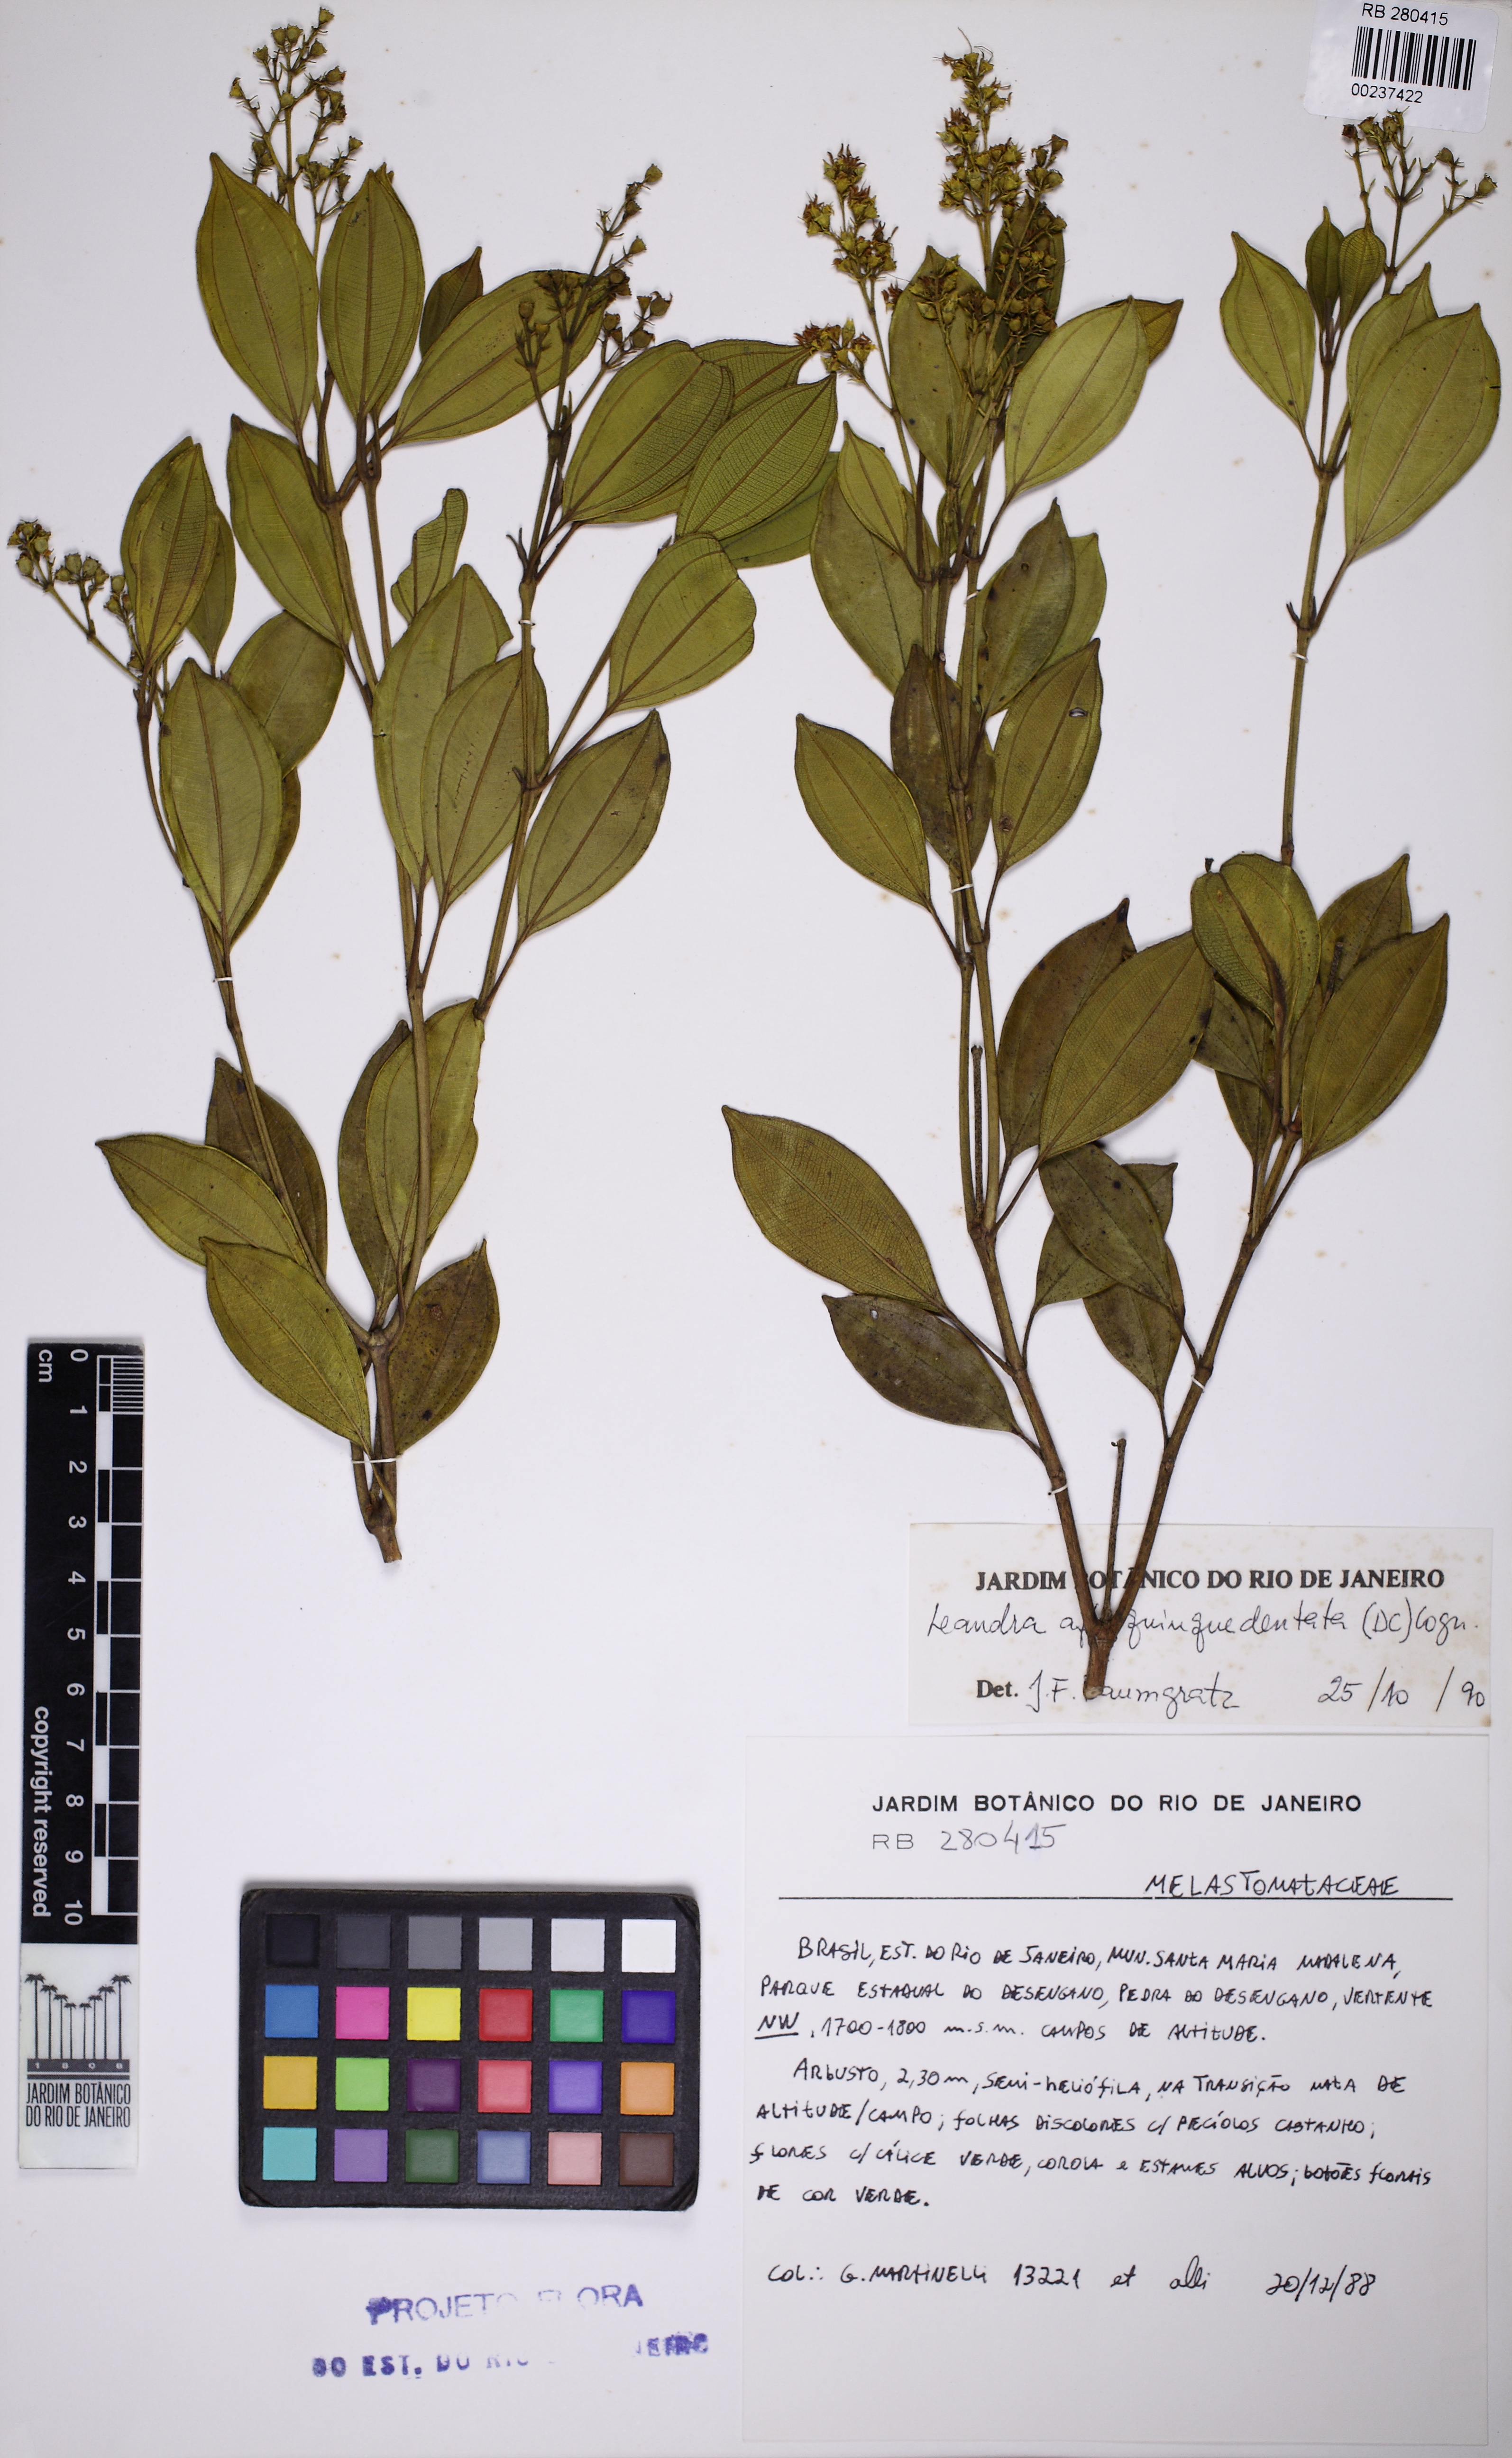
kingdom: Plantae
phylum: Tracheophyta
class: Magnoliopsida
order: Myrtales
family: Melastomataceae
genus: Miconia
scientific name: Miconia quinquedentata
